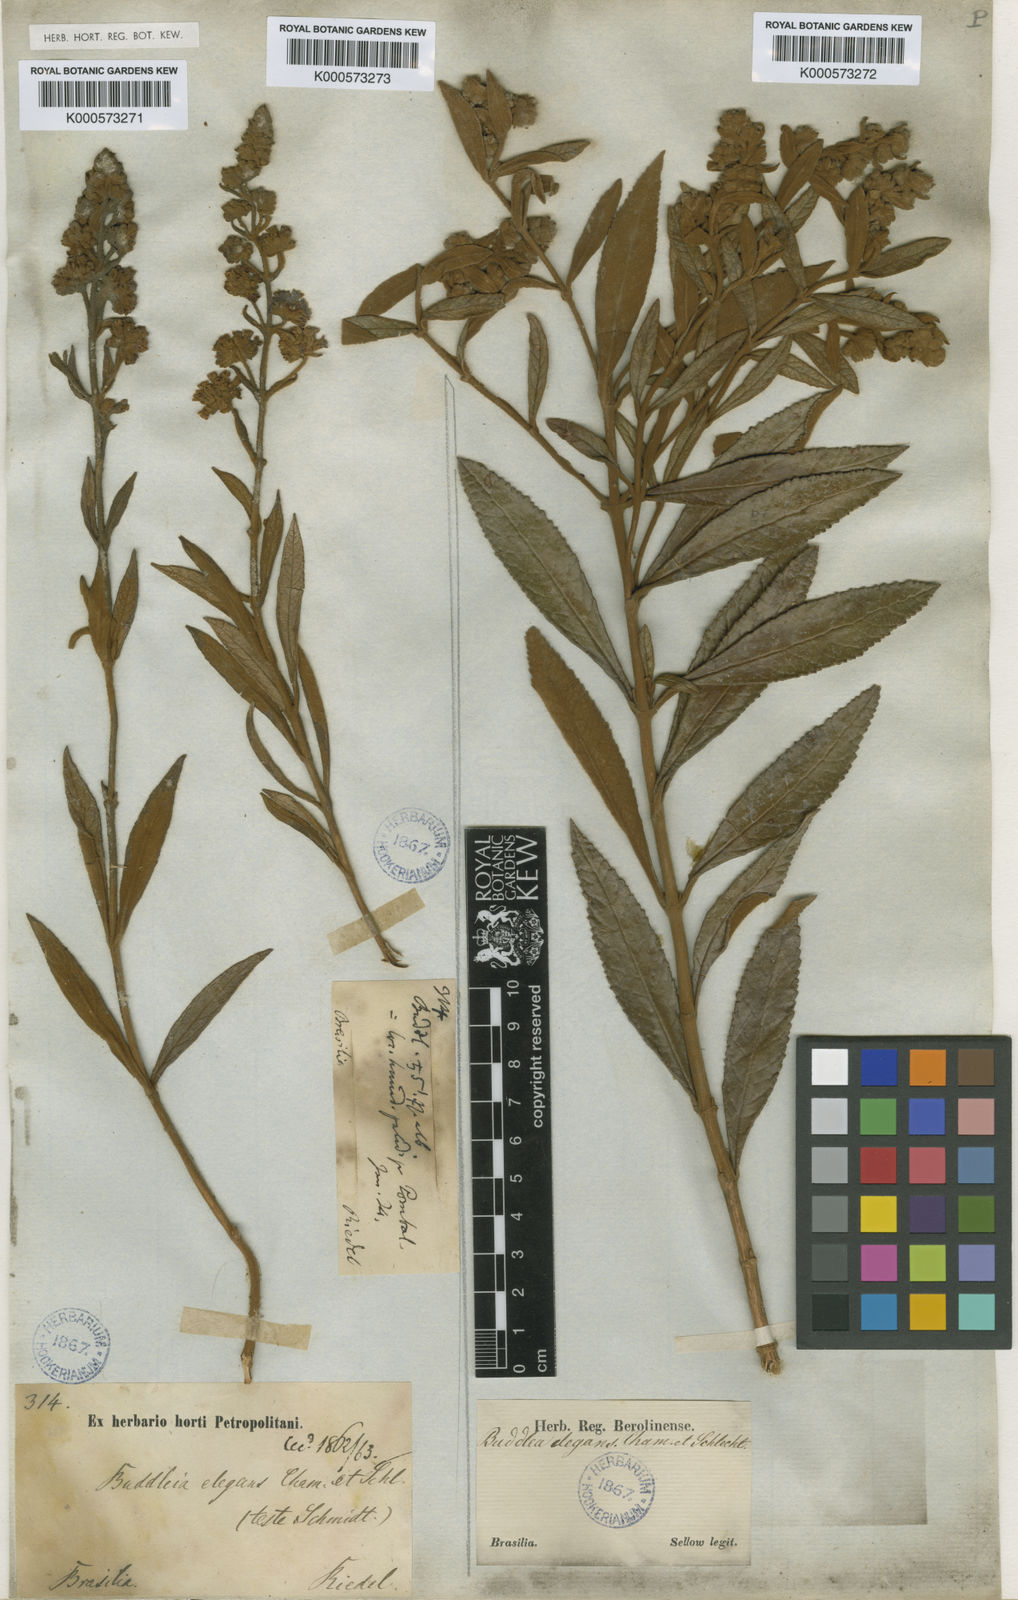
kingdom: Plantae
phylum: Tracheophyta
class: Magnoliopsida
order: Lamiales
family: Scrophulariaceae
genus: Buddleja
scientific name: Buddleja elegans
